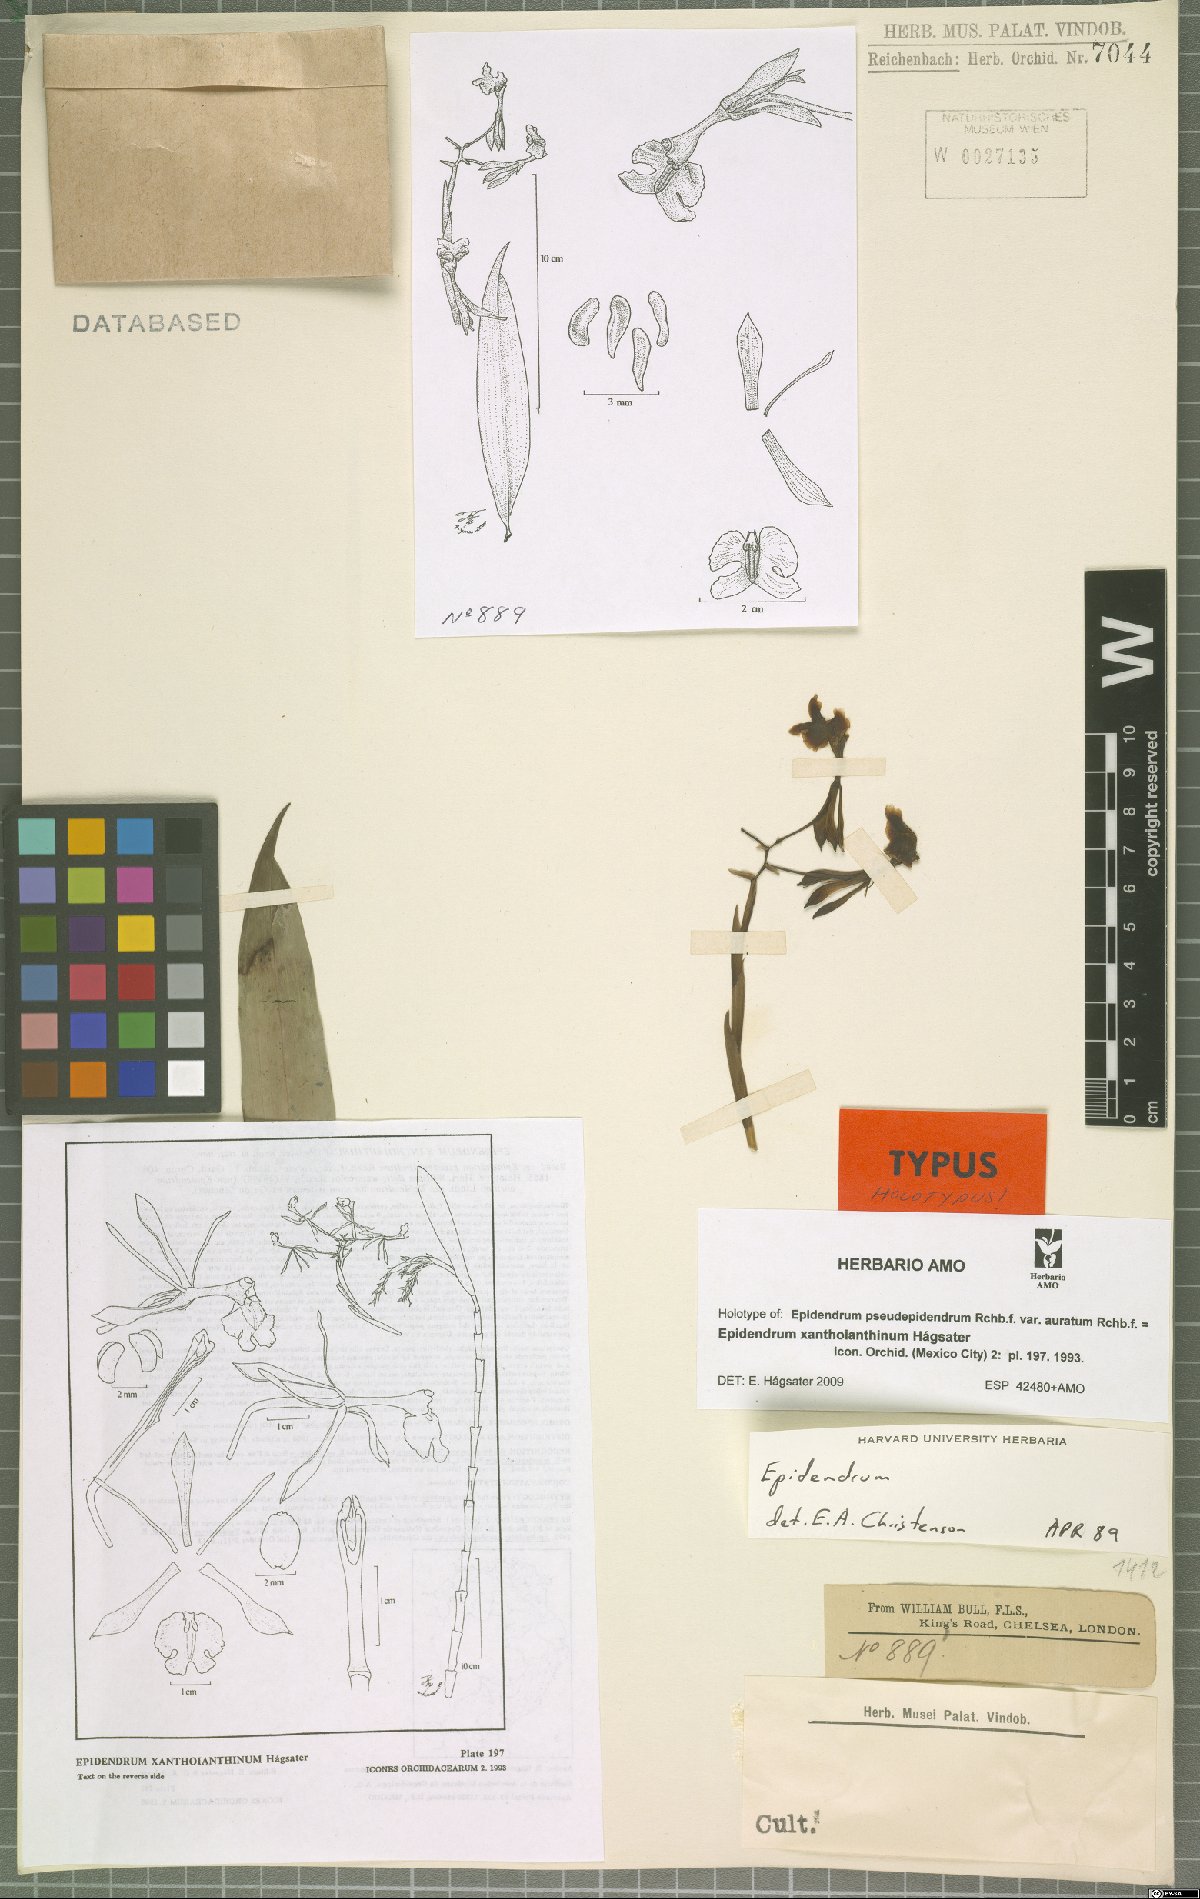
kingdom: Plantae
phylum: Tracheophyta
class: Liliopsida
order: Asparagales
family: Orchidaceae
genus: Epidendrum
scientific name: Epidendrum xanthoianthinum
